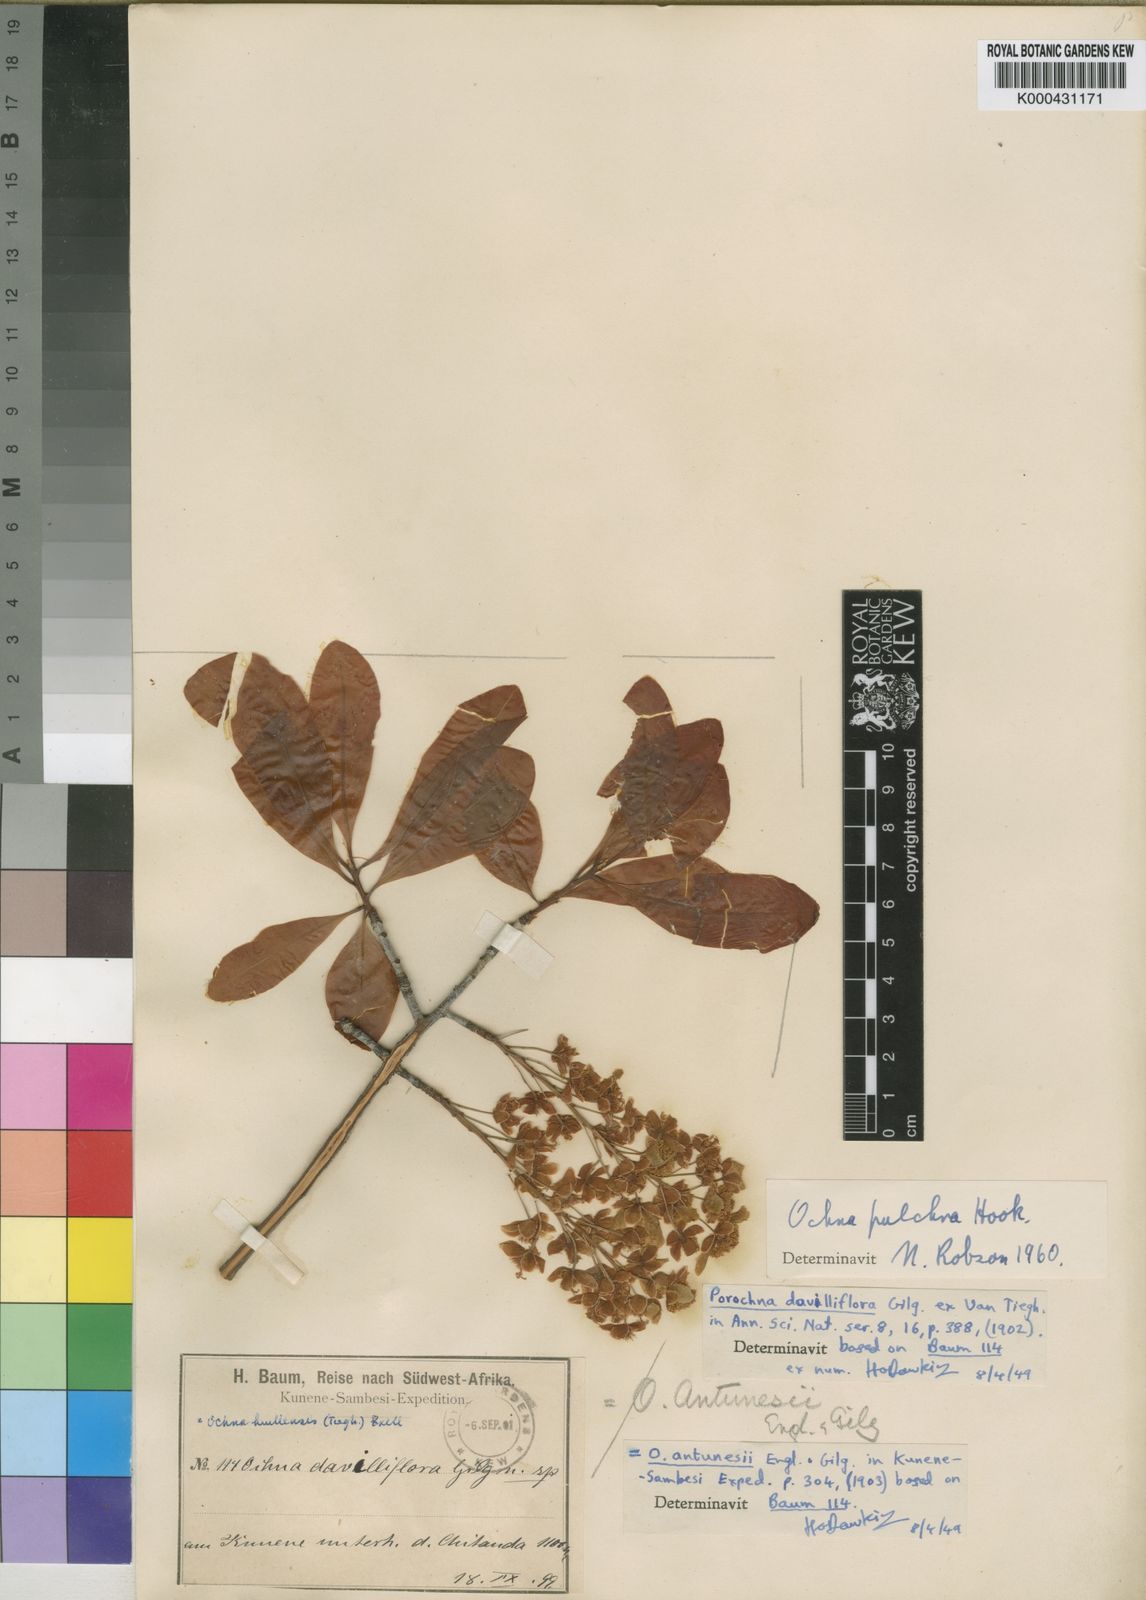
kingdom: Plantae
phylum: Tracheophyta
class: Magnoliopsida
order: Malpighiales
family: Ochnaceae
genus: Ochna
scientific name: Ochna pulchra
